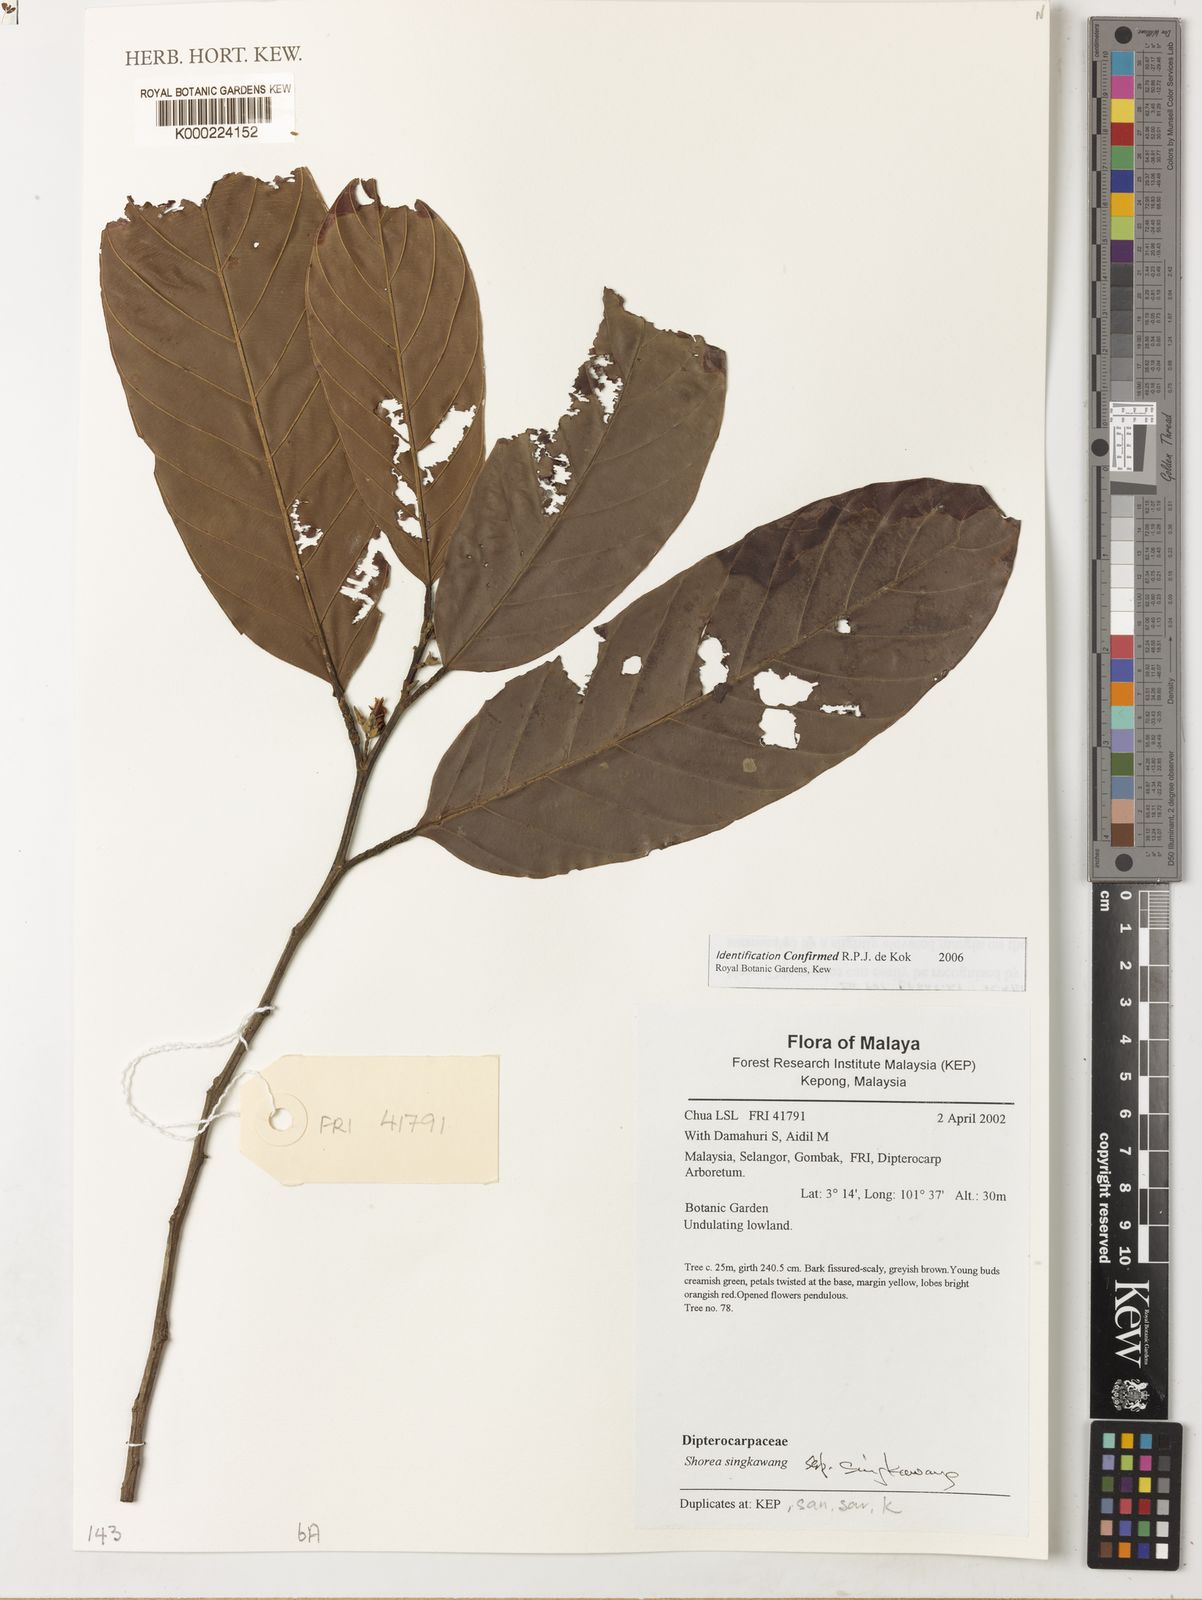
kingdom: Plantae
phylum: Tracheophyta
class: Magnoliopsida
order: Malvales
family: Dipterocarpaceae
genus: Dipterocarpus
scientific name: Dipterocarpus
